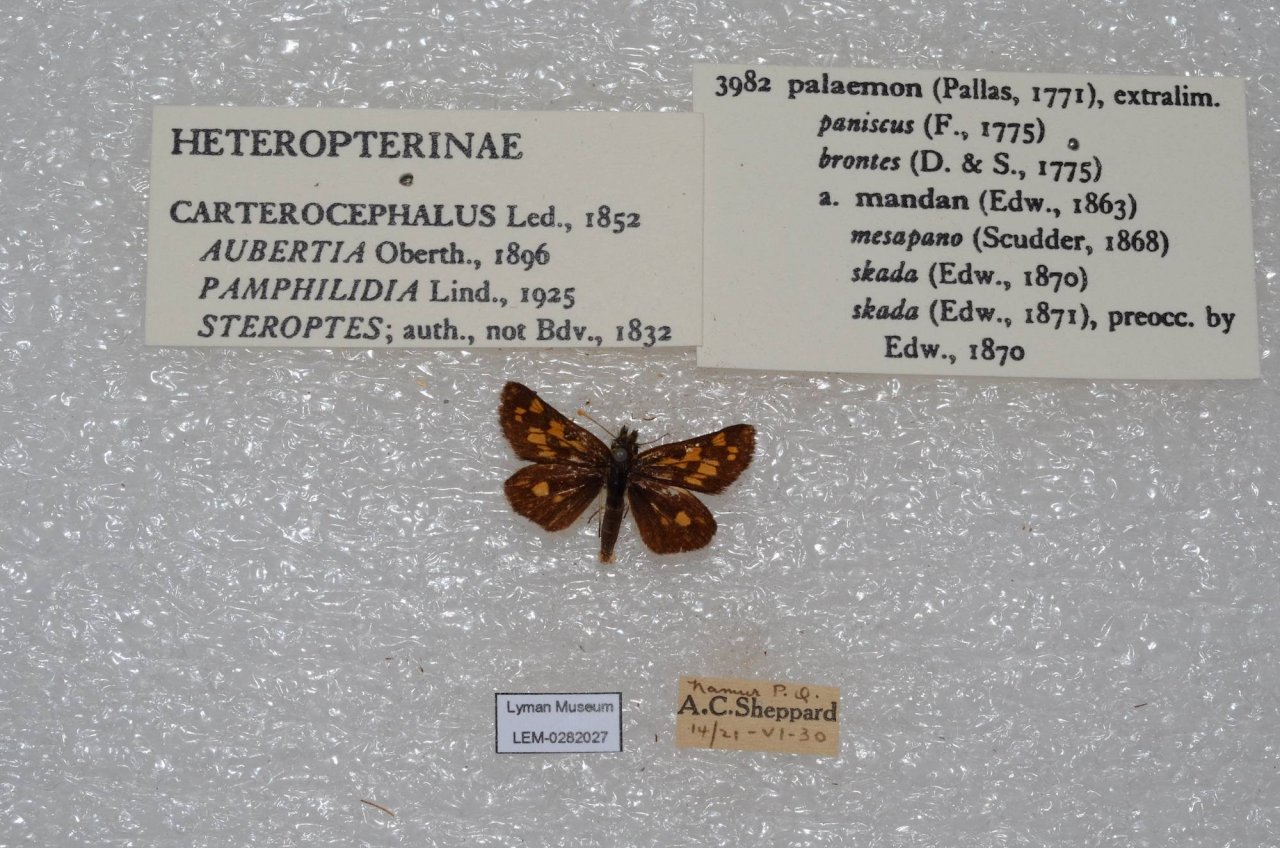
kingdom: Animalia
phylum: Arthropoda
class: Insecta
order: Lepidoptera
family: Hesperiidae
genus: Carterocephalus
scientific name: Carterocephalus palaemon
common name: Chequered Skipper
